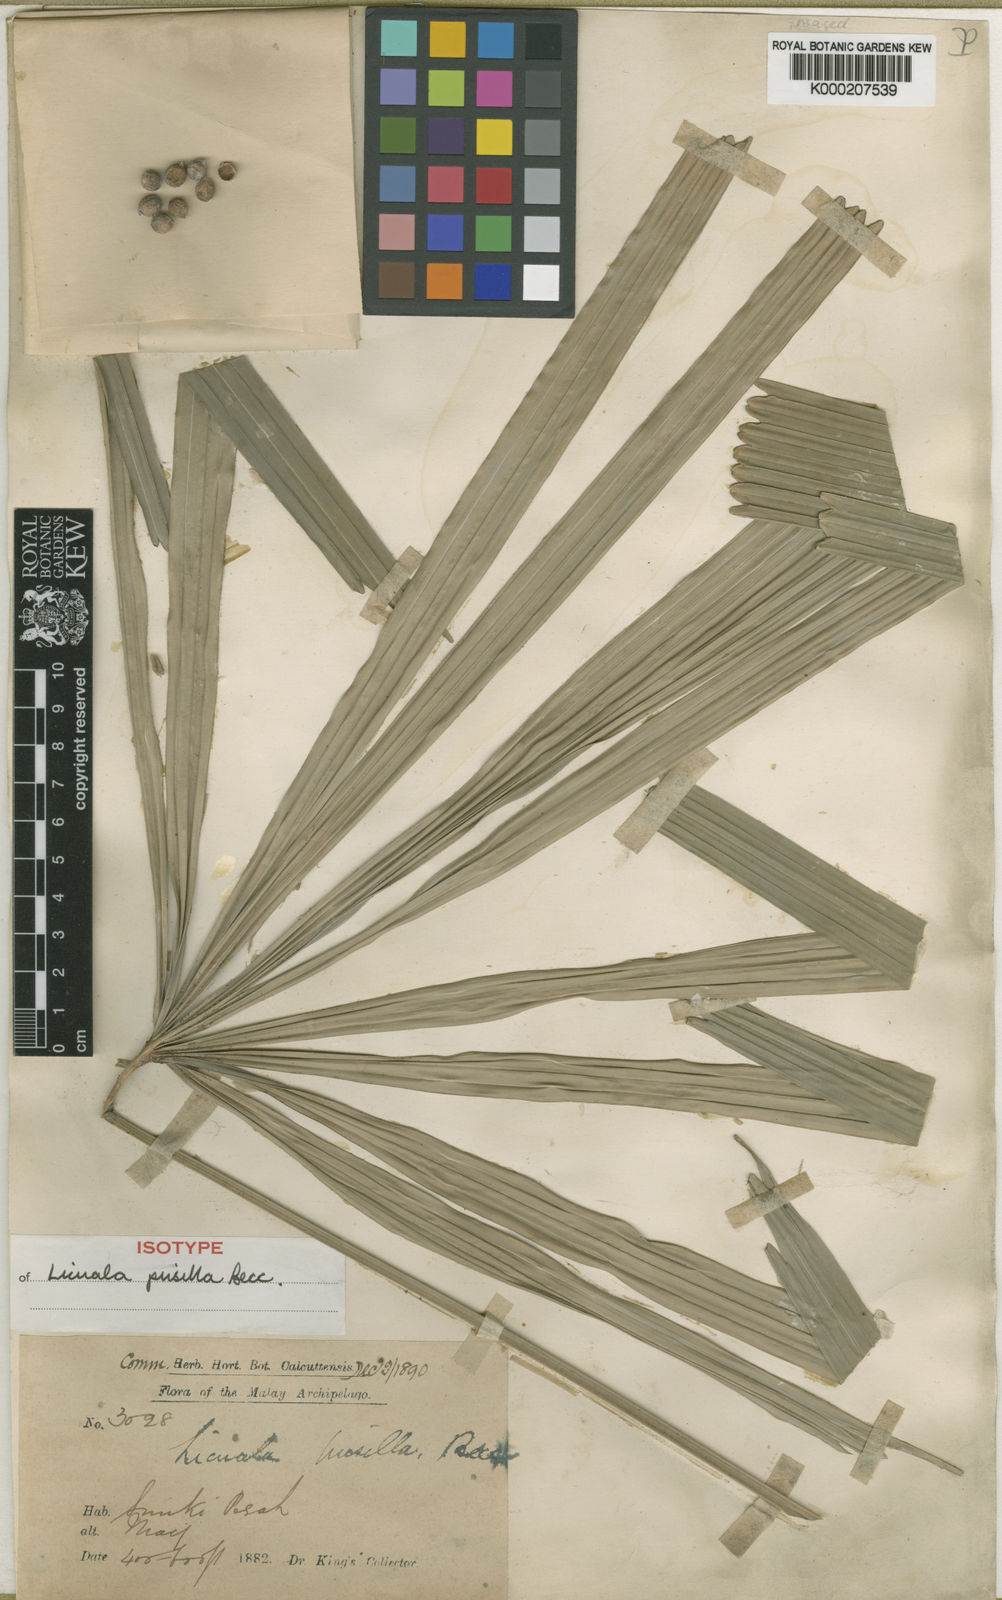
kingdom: Plantae
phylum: Tracheophyta
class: Liliopsida
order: Arecales
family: Arecaceae
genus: Licuala
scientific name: Licuala pusilla
